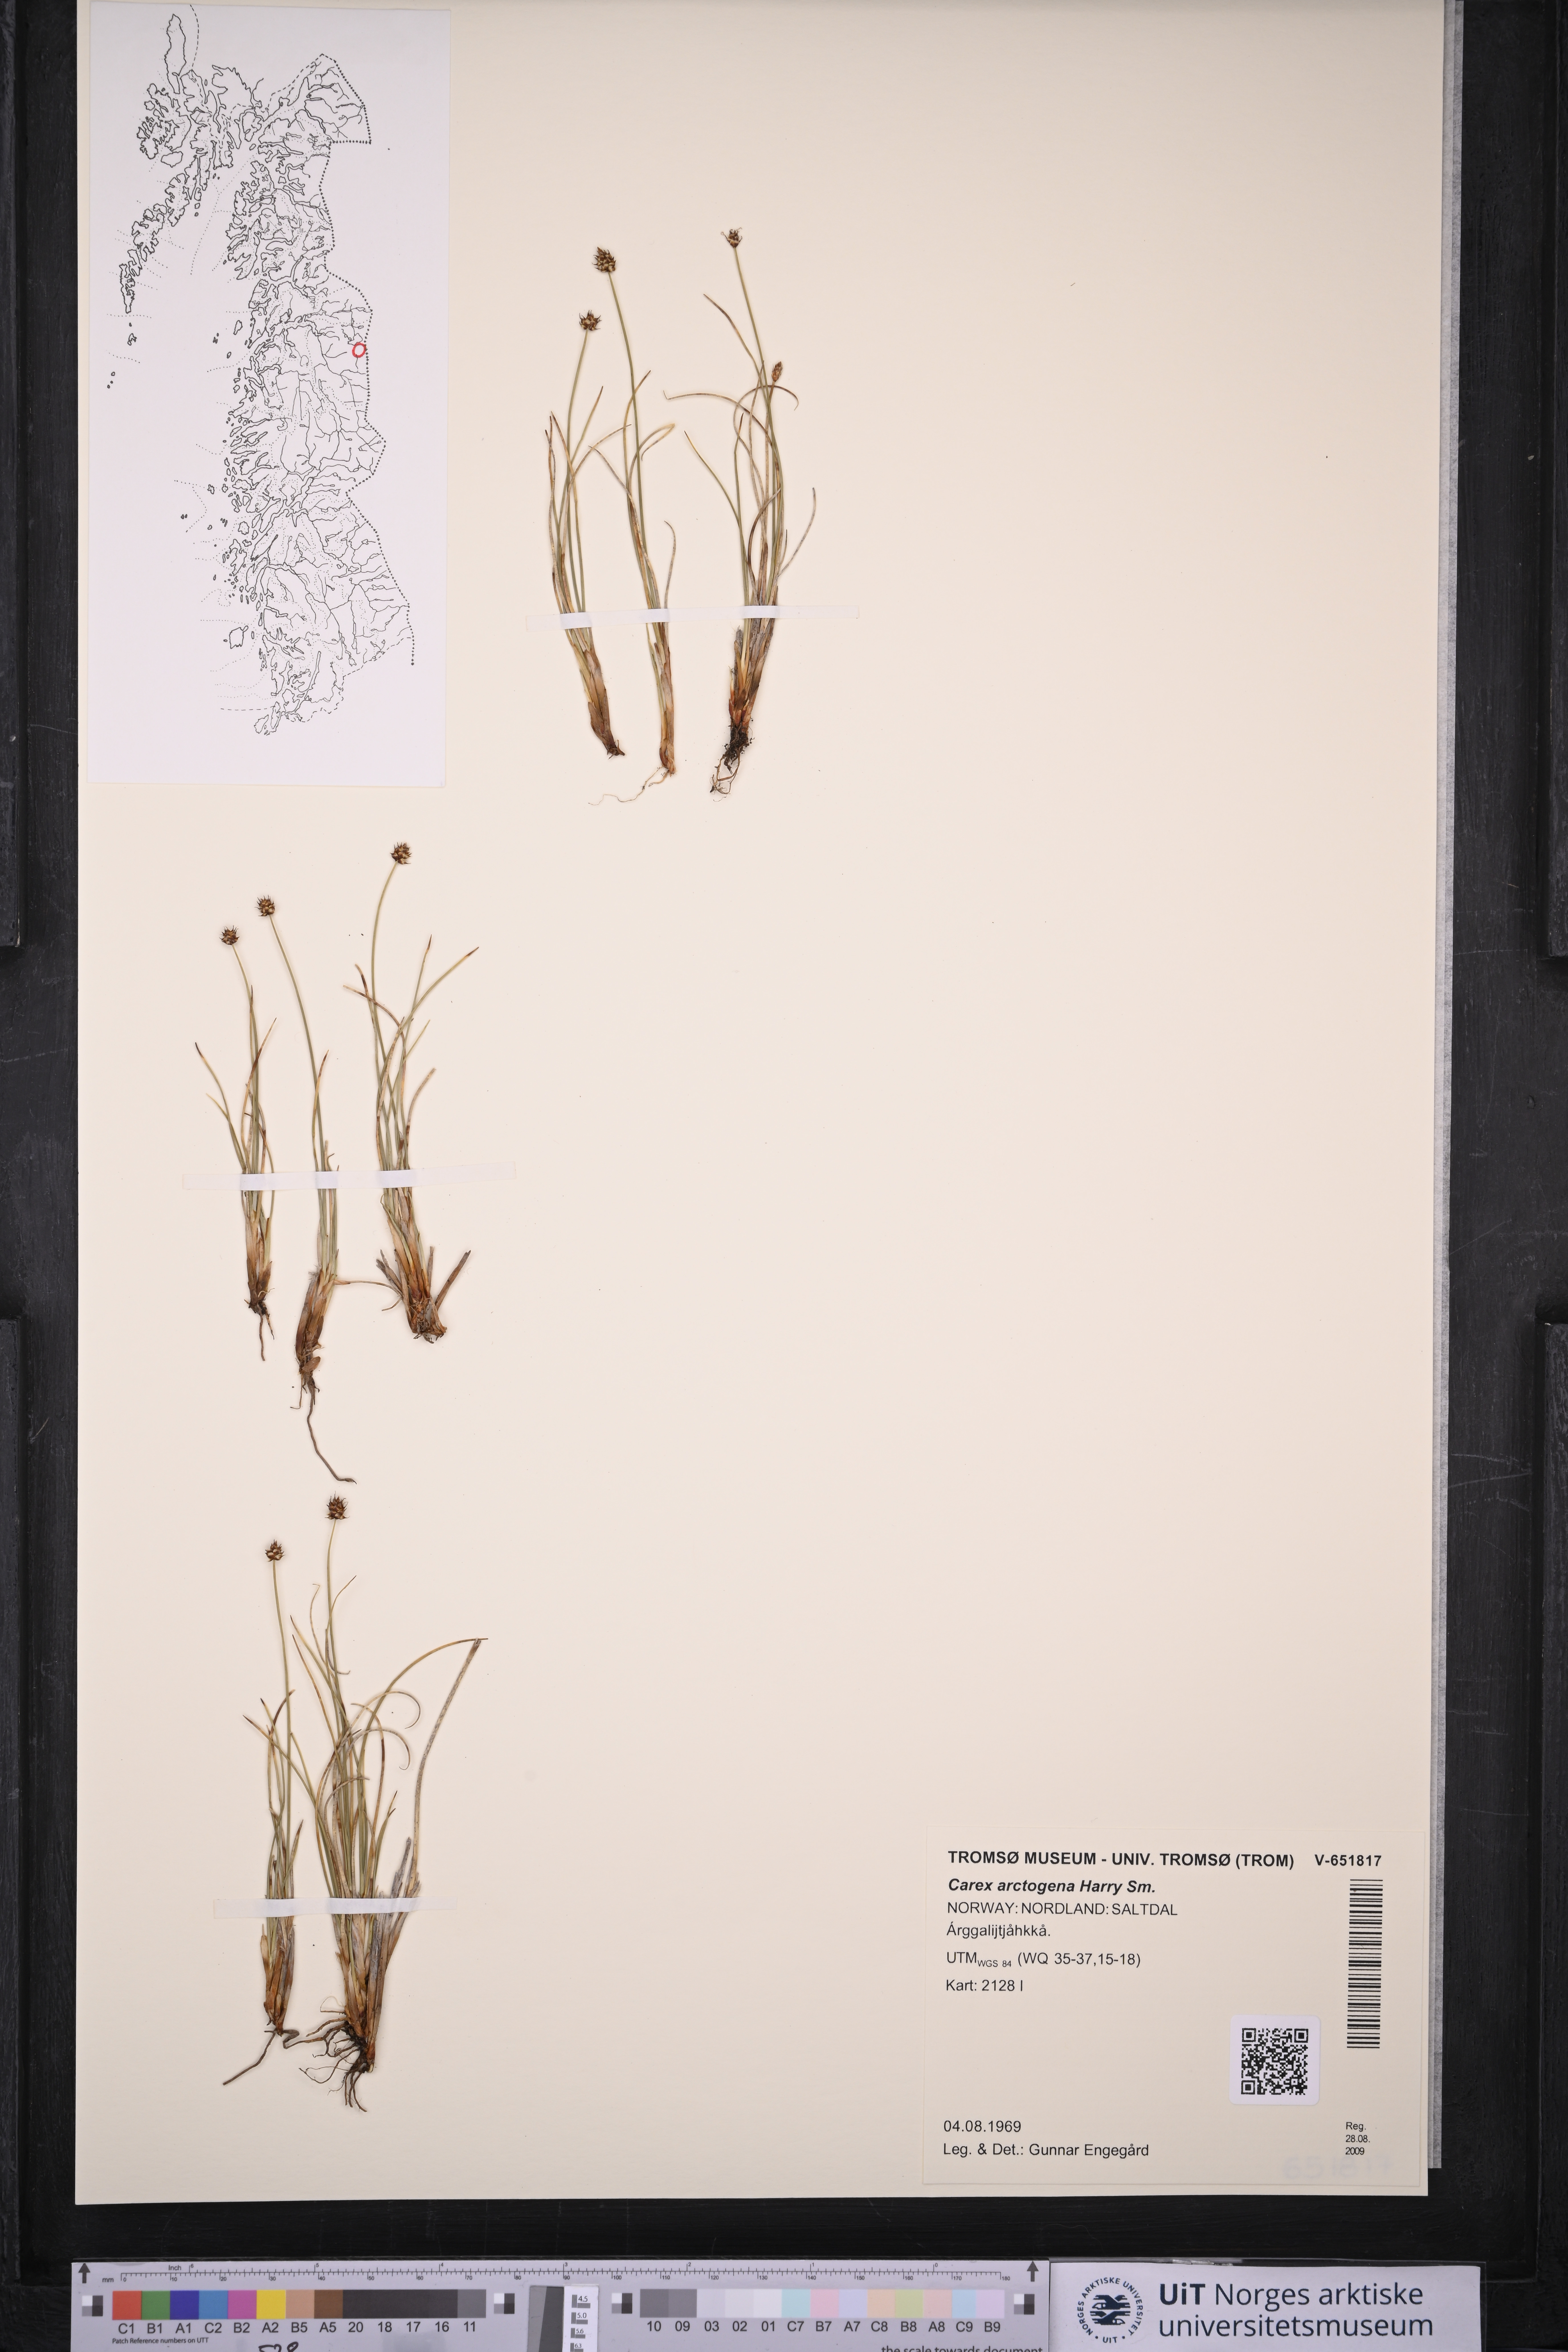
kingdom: Plantae
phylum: Tracheophyta
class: Liliopsida
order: Poales
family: Cyperaceae
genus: Carex
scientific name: Carex arctogena
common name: Black sedge
